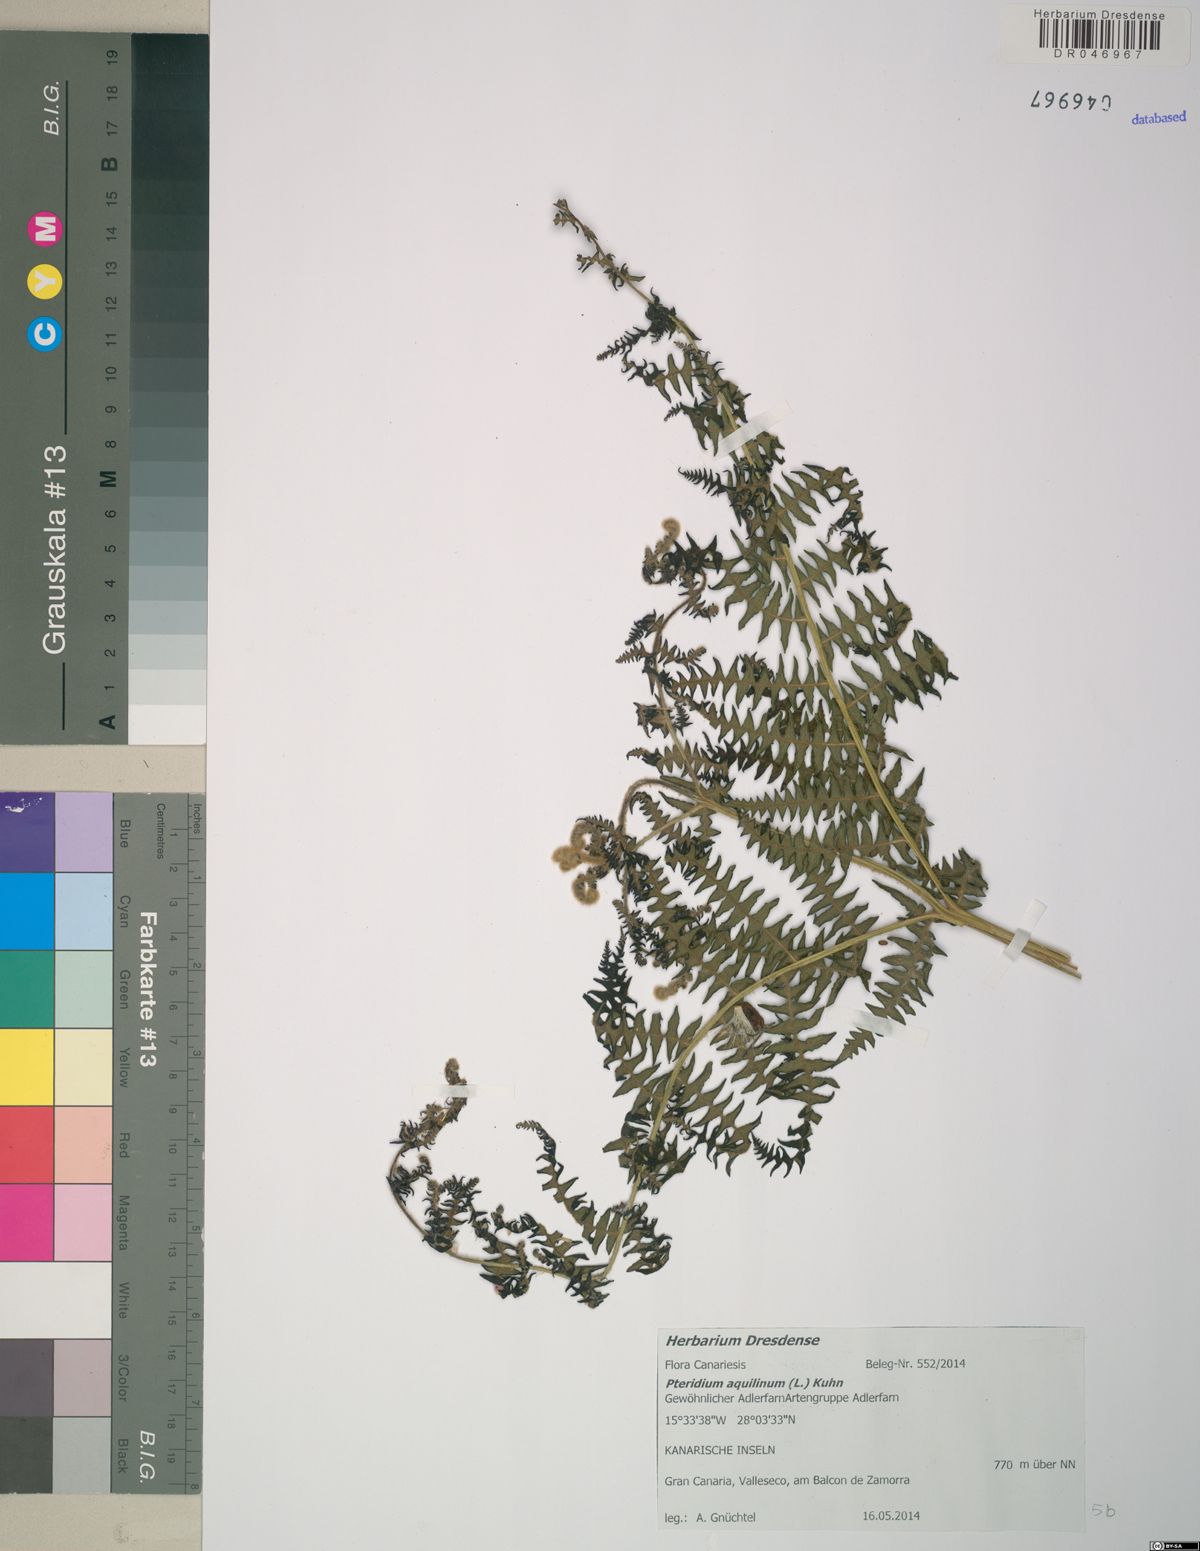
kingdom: Plantae
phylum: Tracheophyta
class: Polypodiopsida
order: Polypodiales
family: Dennstaedtiaceae
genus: Pteridium
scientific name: Pteridium aquilinum
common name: Bracken
